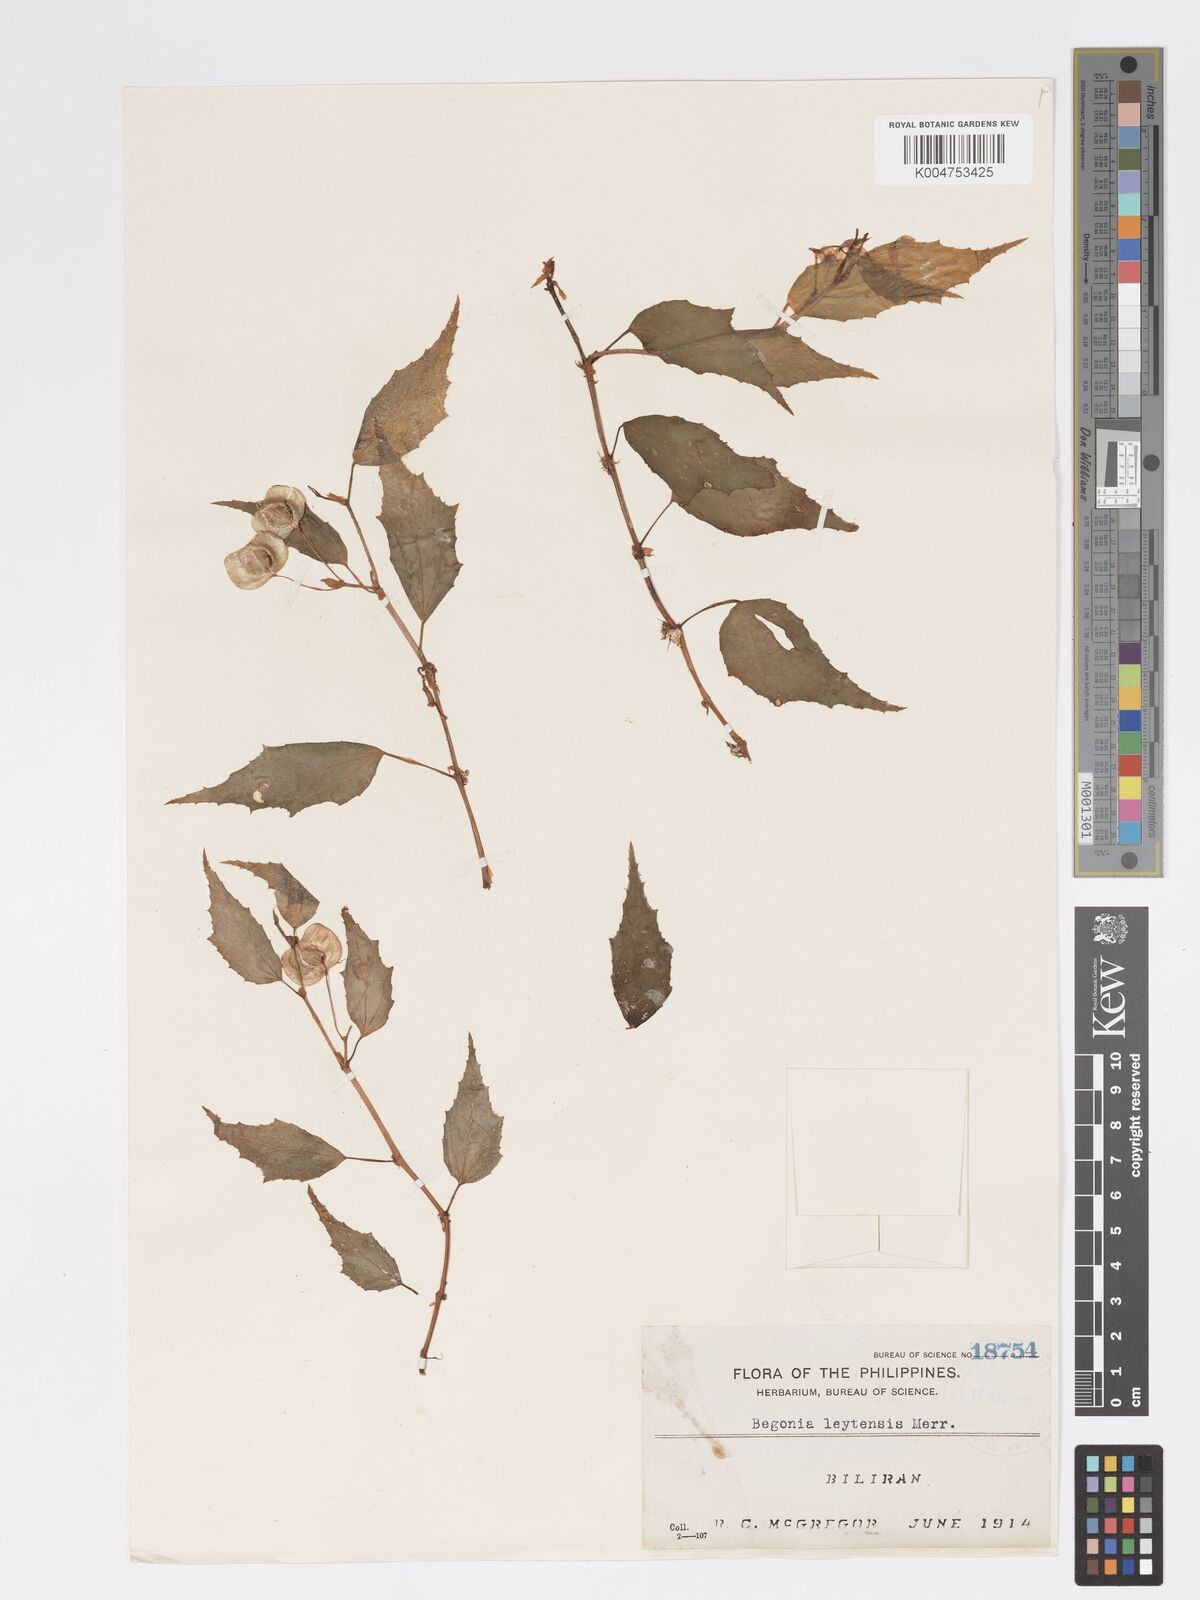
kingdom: Plantae
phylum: Tracheophyta
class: Magnoliopsida
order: Cucurbitales
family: Begoniaceae
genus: Begonia
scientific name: Begonia binuangensis
